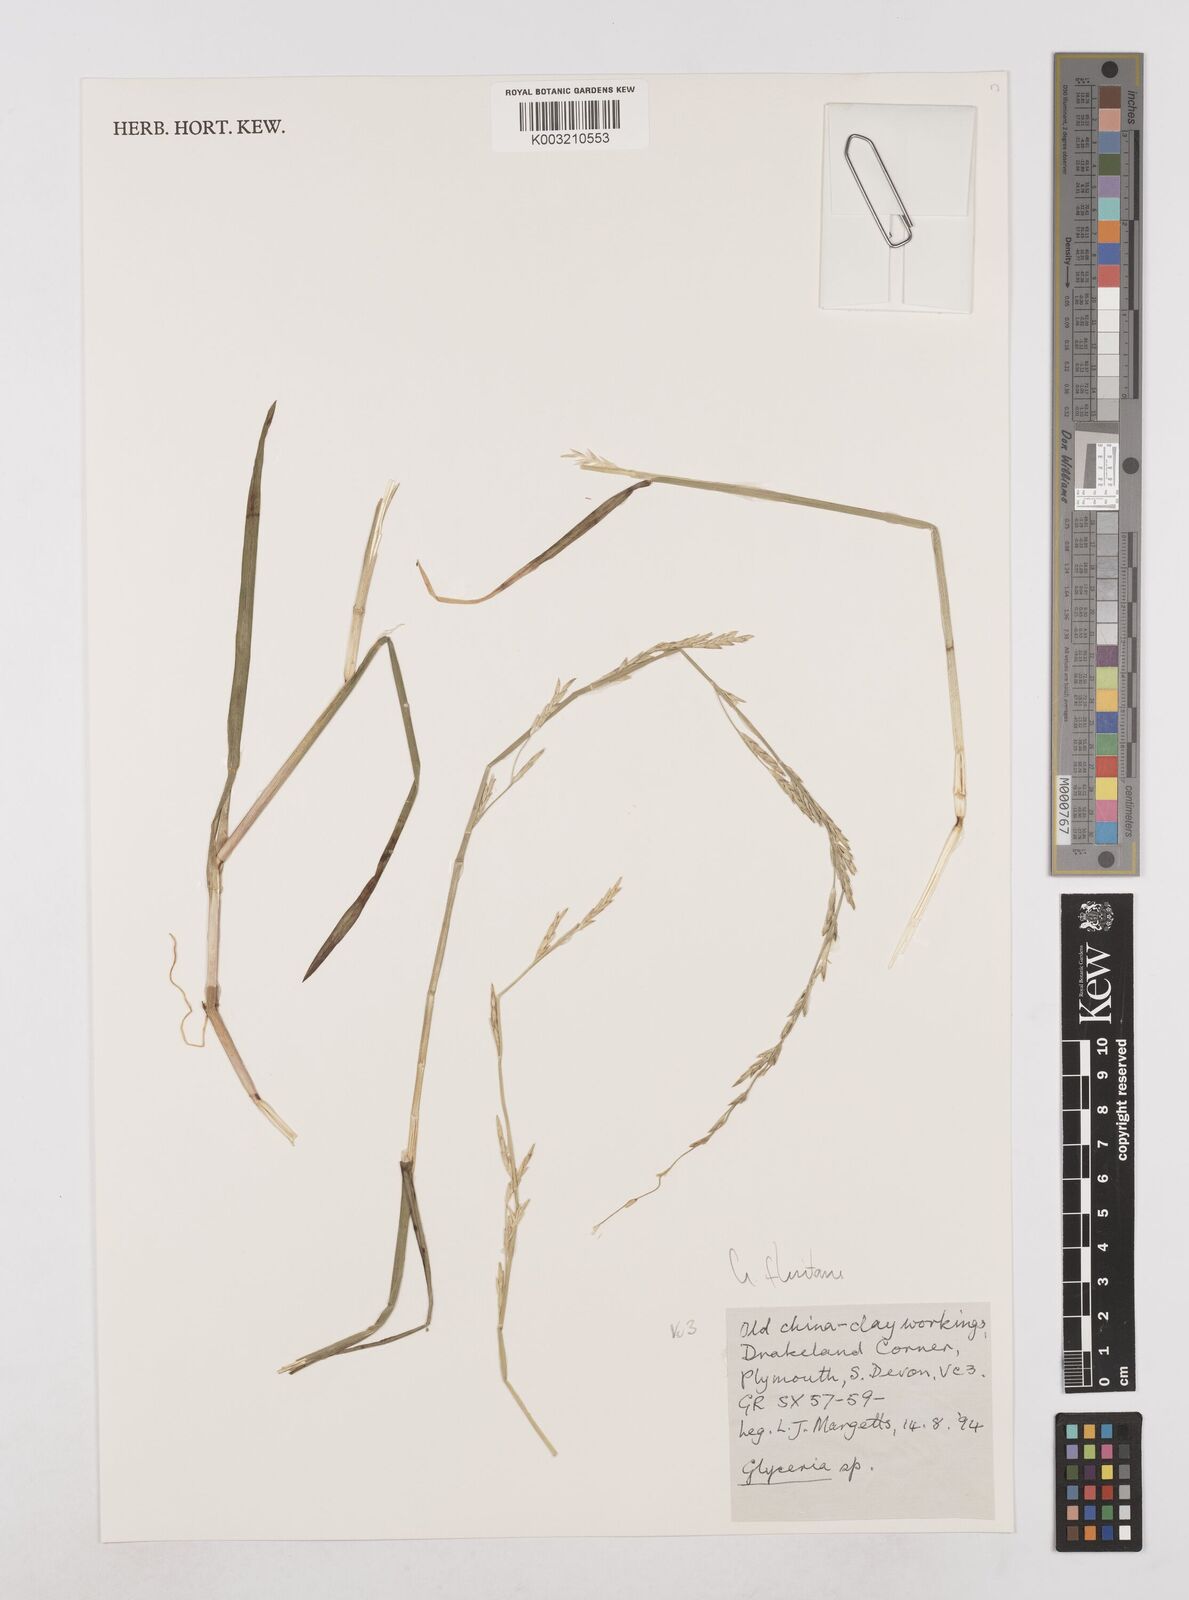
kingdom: Plantae
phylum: Tracheophyta
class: Liliopsida
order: Poales
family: Poaceae
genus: Glyceria
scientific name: Glyceria fluitans
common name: Floating sweet-grass
